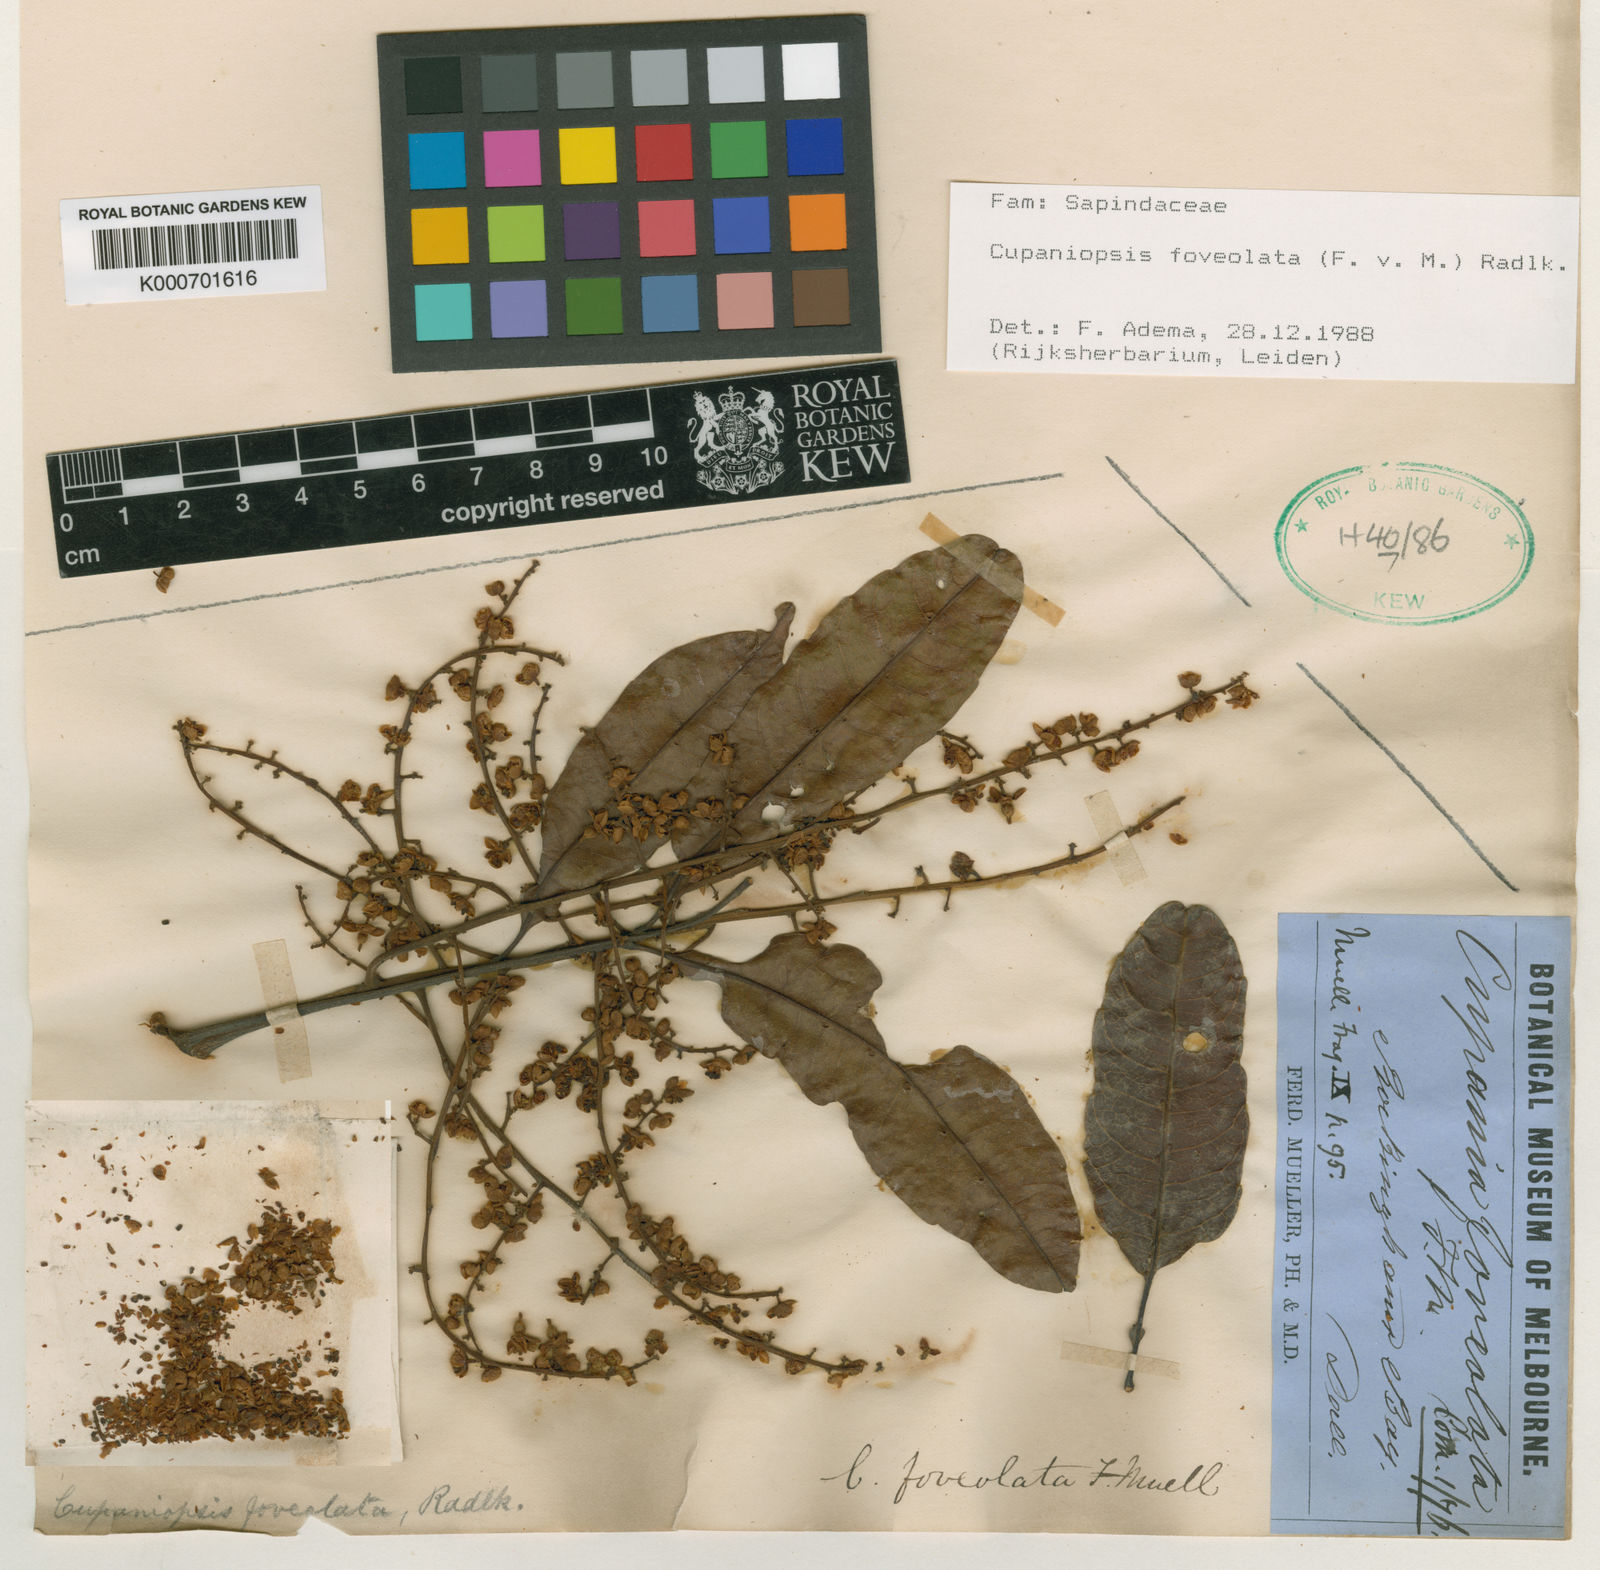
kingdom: Plantae
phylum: Tracheophyta
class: Magnoliopsida
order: Sapindales
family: Sapindaceae
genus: Cupaniopsis
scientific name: Cupaniopsis foveolata
